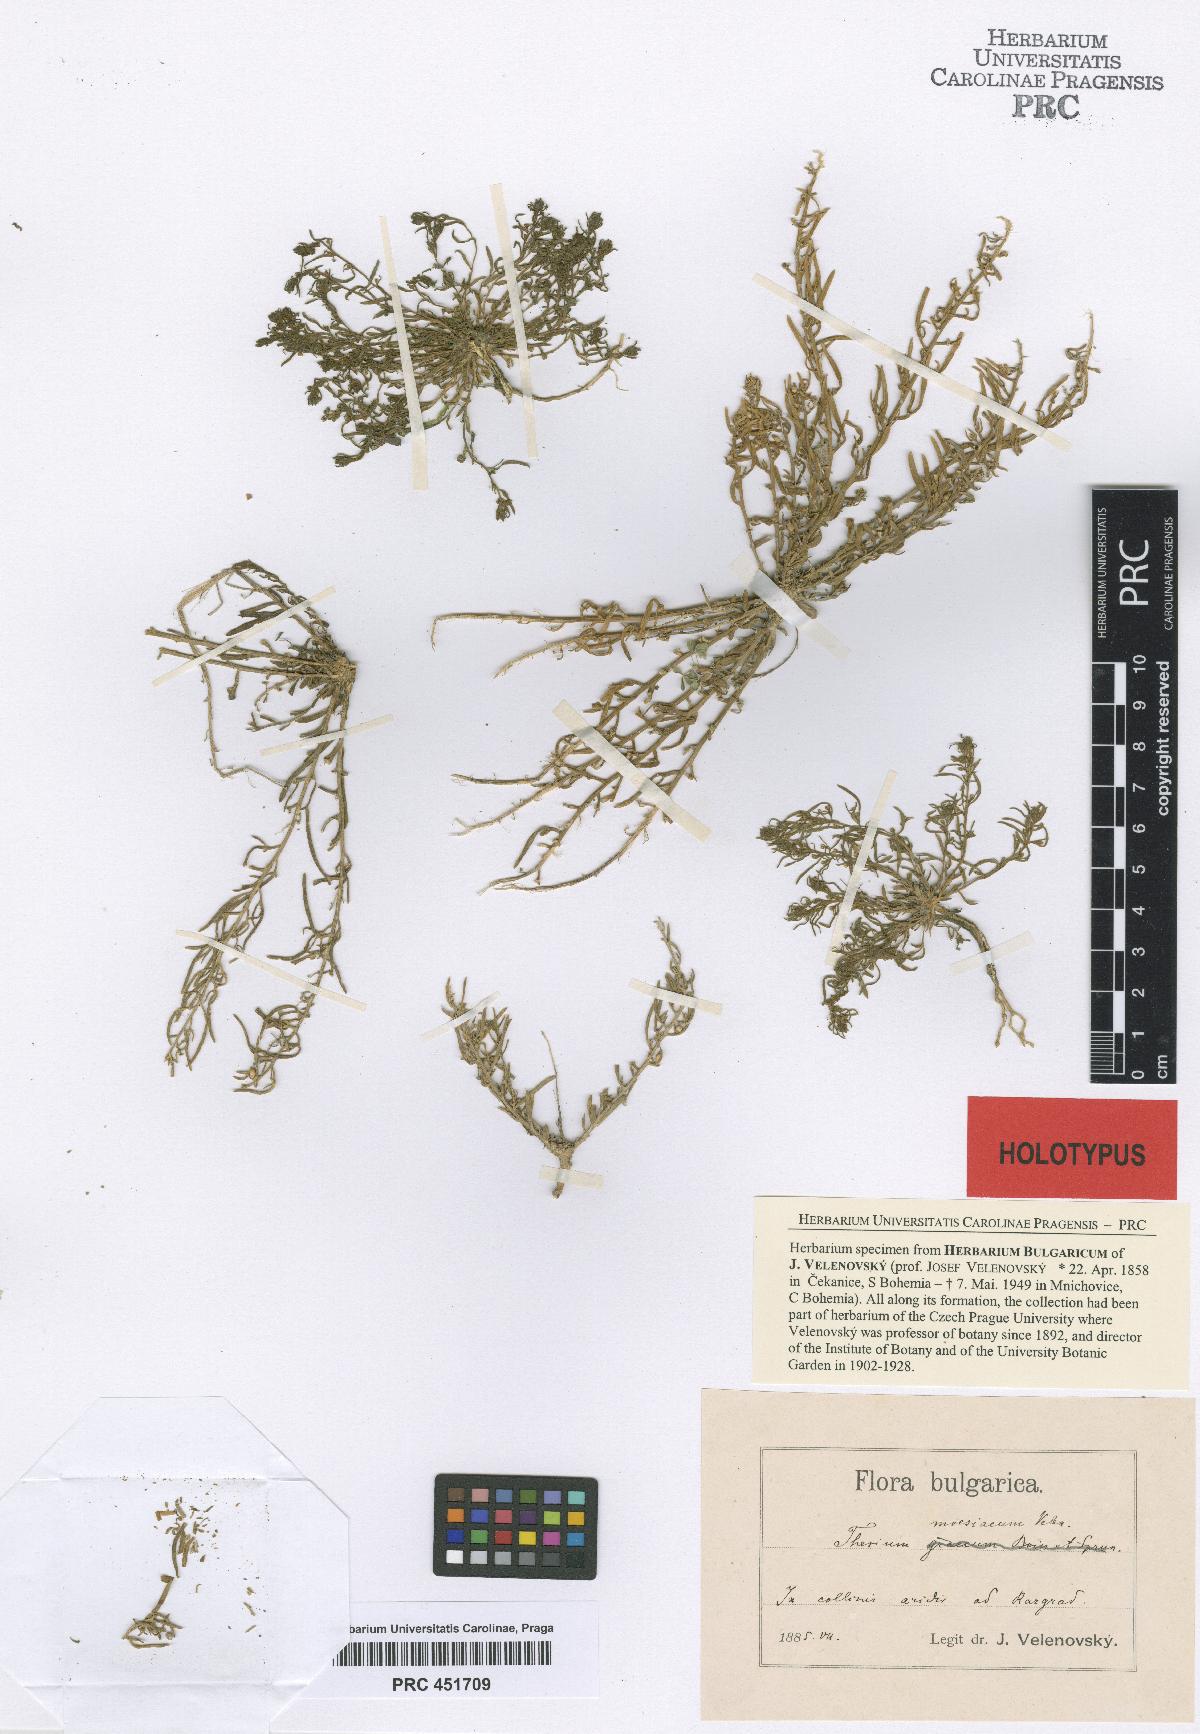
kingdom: Plantae
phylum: Tracheophyta
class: Magnoliopsida
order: Santalales
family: Thesiaceae
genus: Thesium
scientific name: Thesium dollineri
